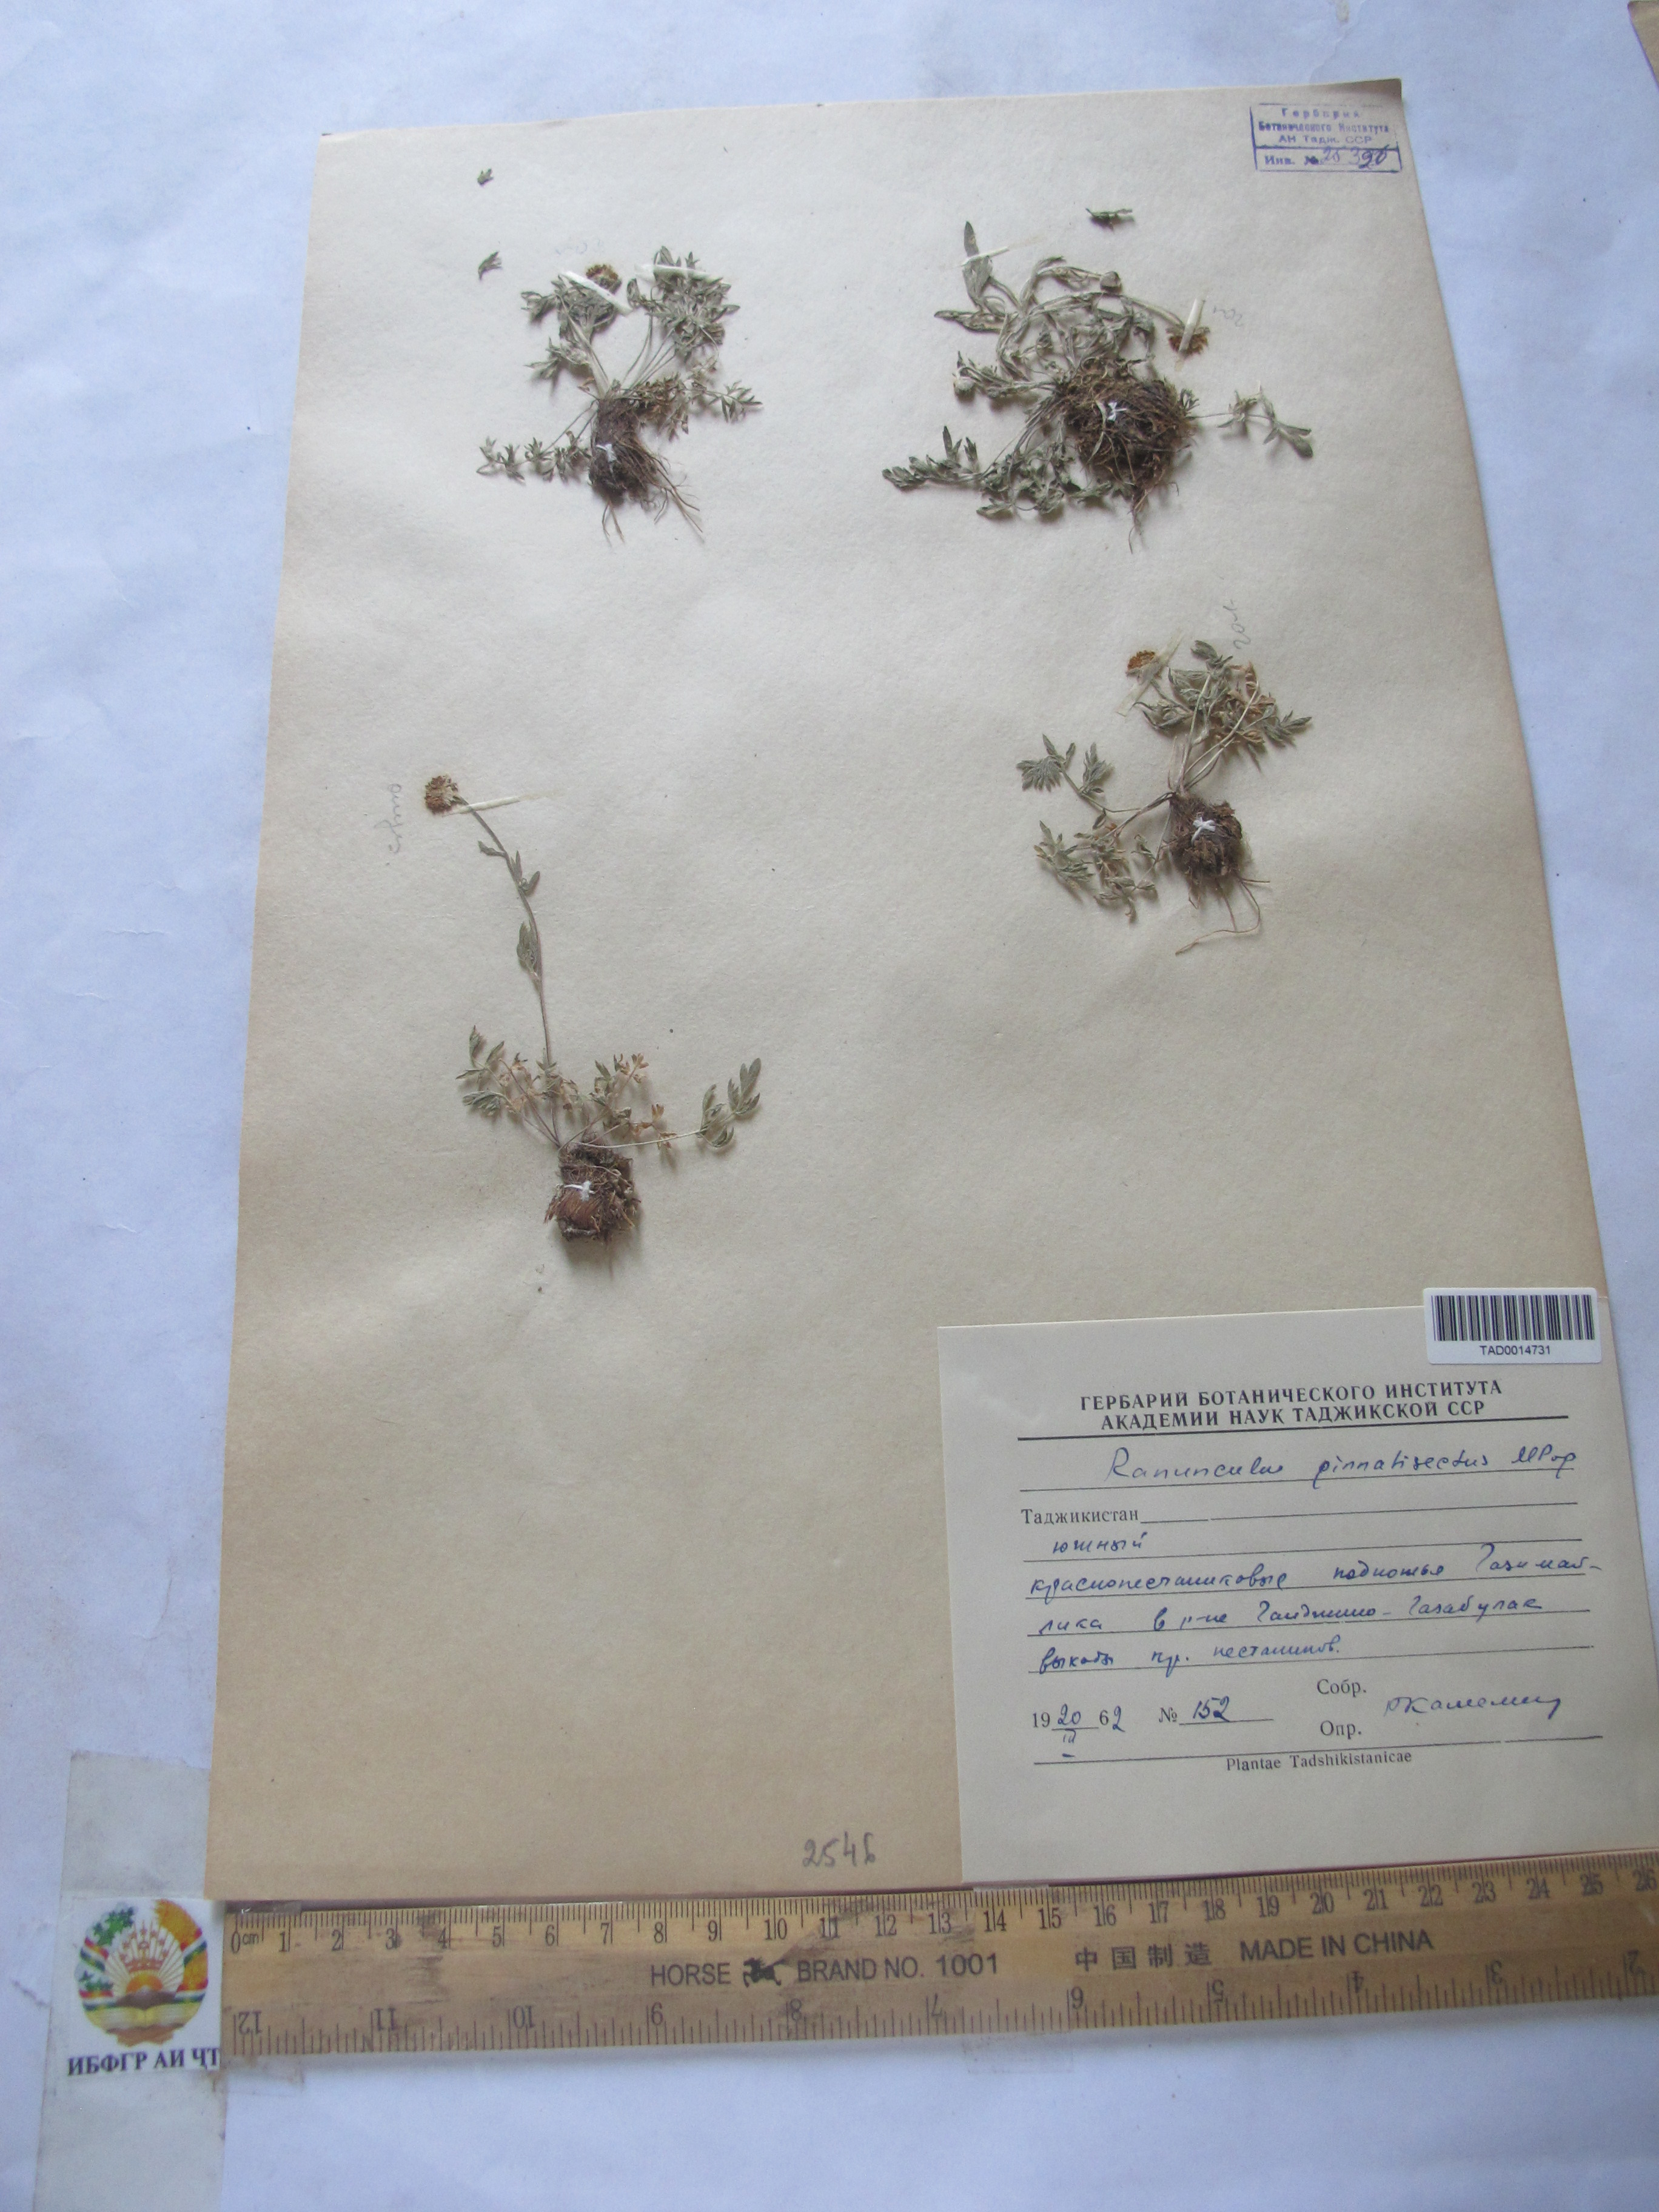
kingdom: Plantae
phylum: Tracheophyta
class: Magnoliopsida
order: Ranunculales
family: Ranunculaceae
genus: Ranunculus
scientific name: Ranunculus pinnatisectus
